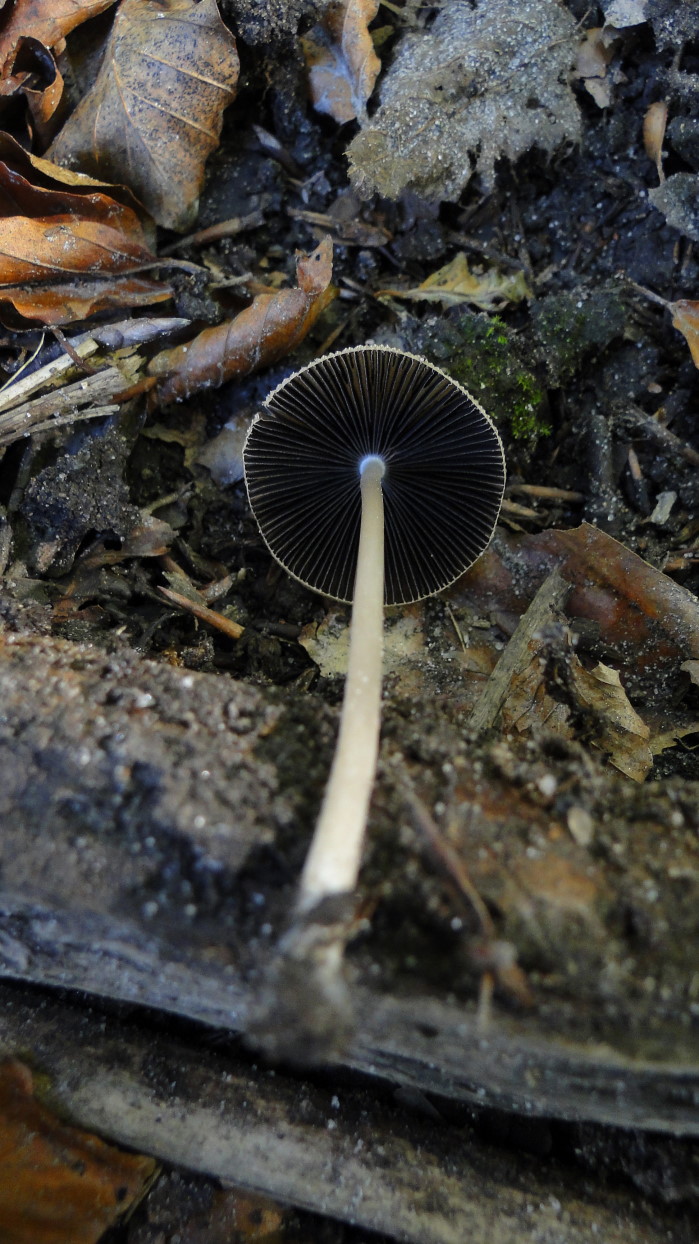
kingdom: Fungi
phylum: Basidiomycota
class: Agaricomycetes
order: Agaricales
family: Psathyrellaceae
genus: Parasola
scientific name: Parasola auricoma
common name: hansens hjulhat
